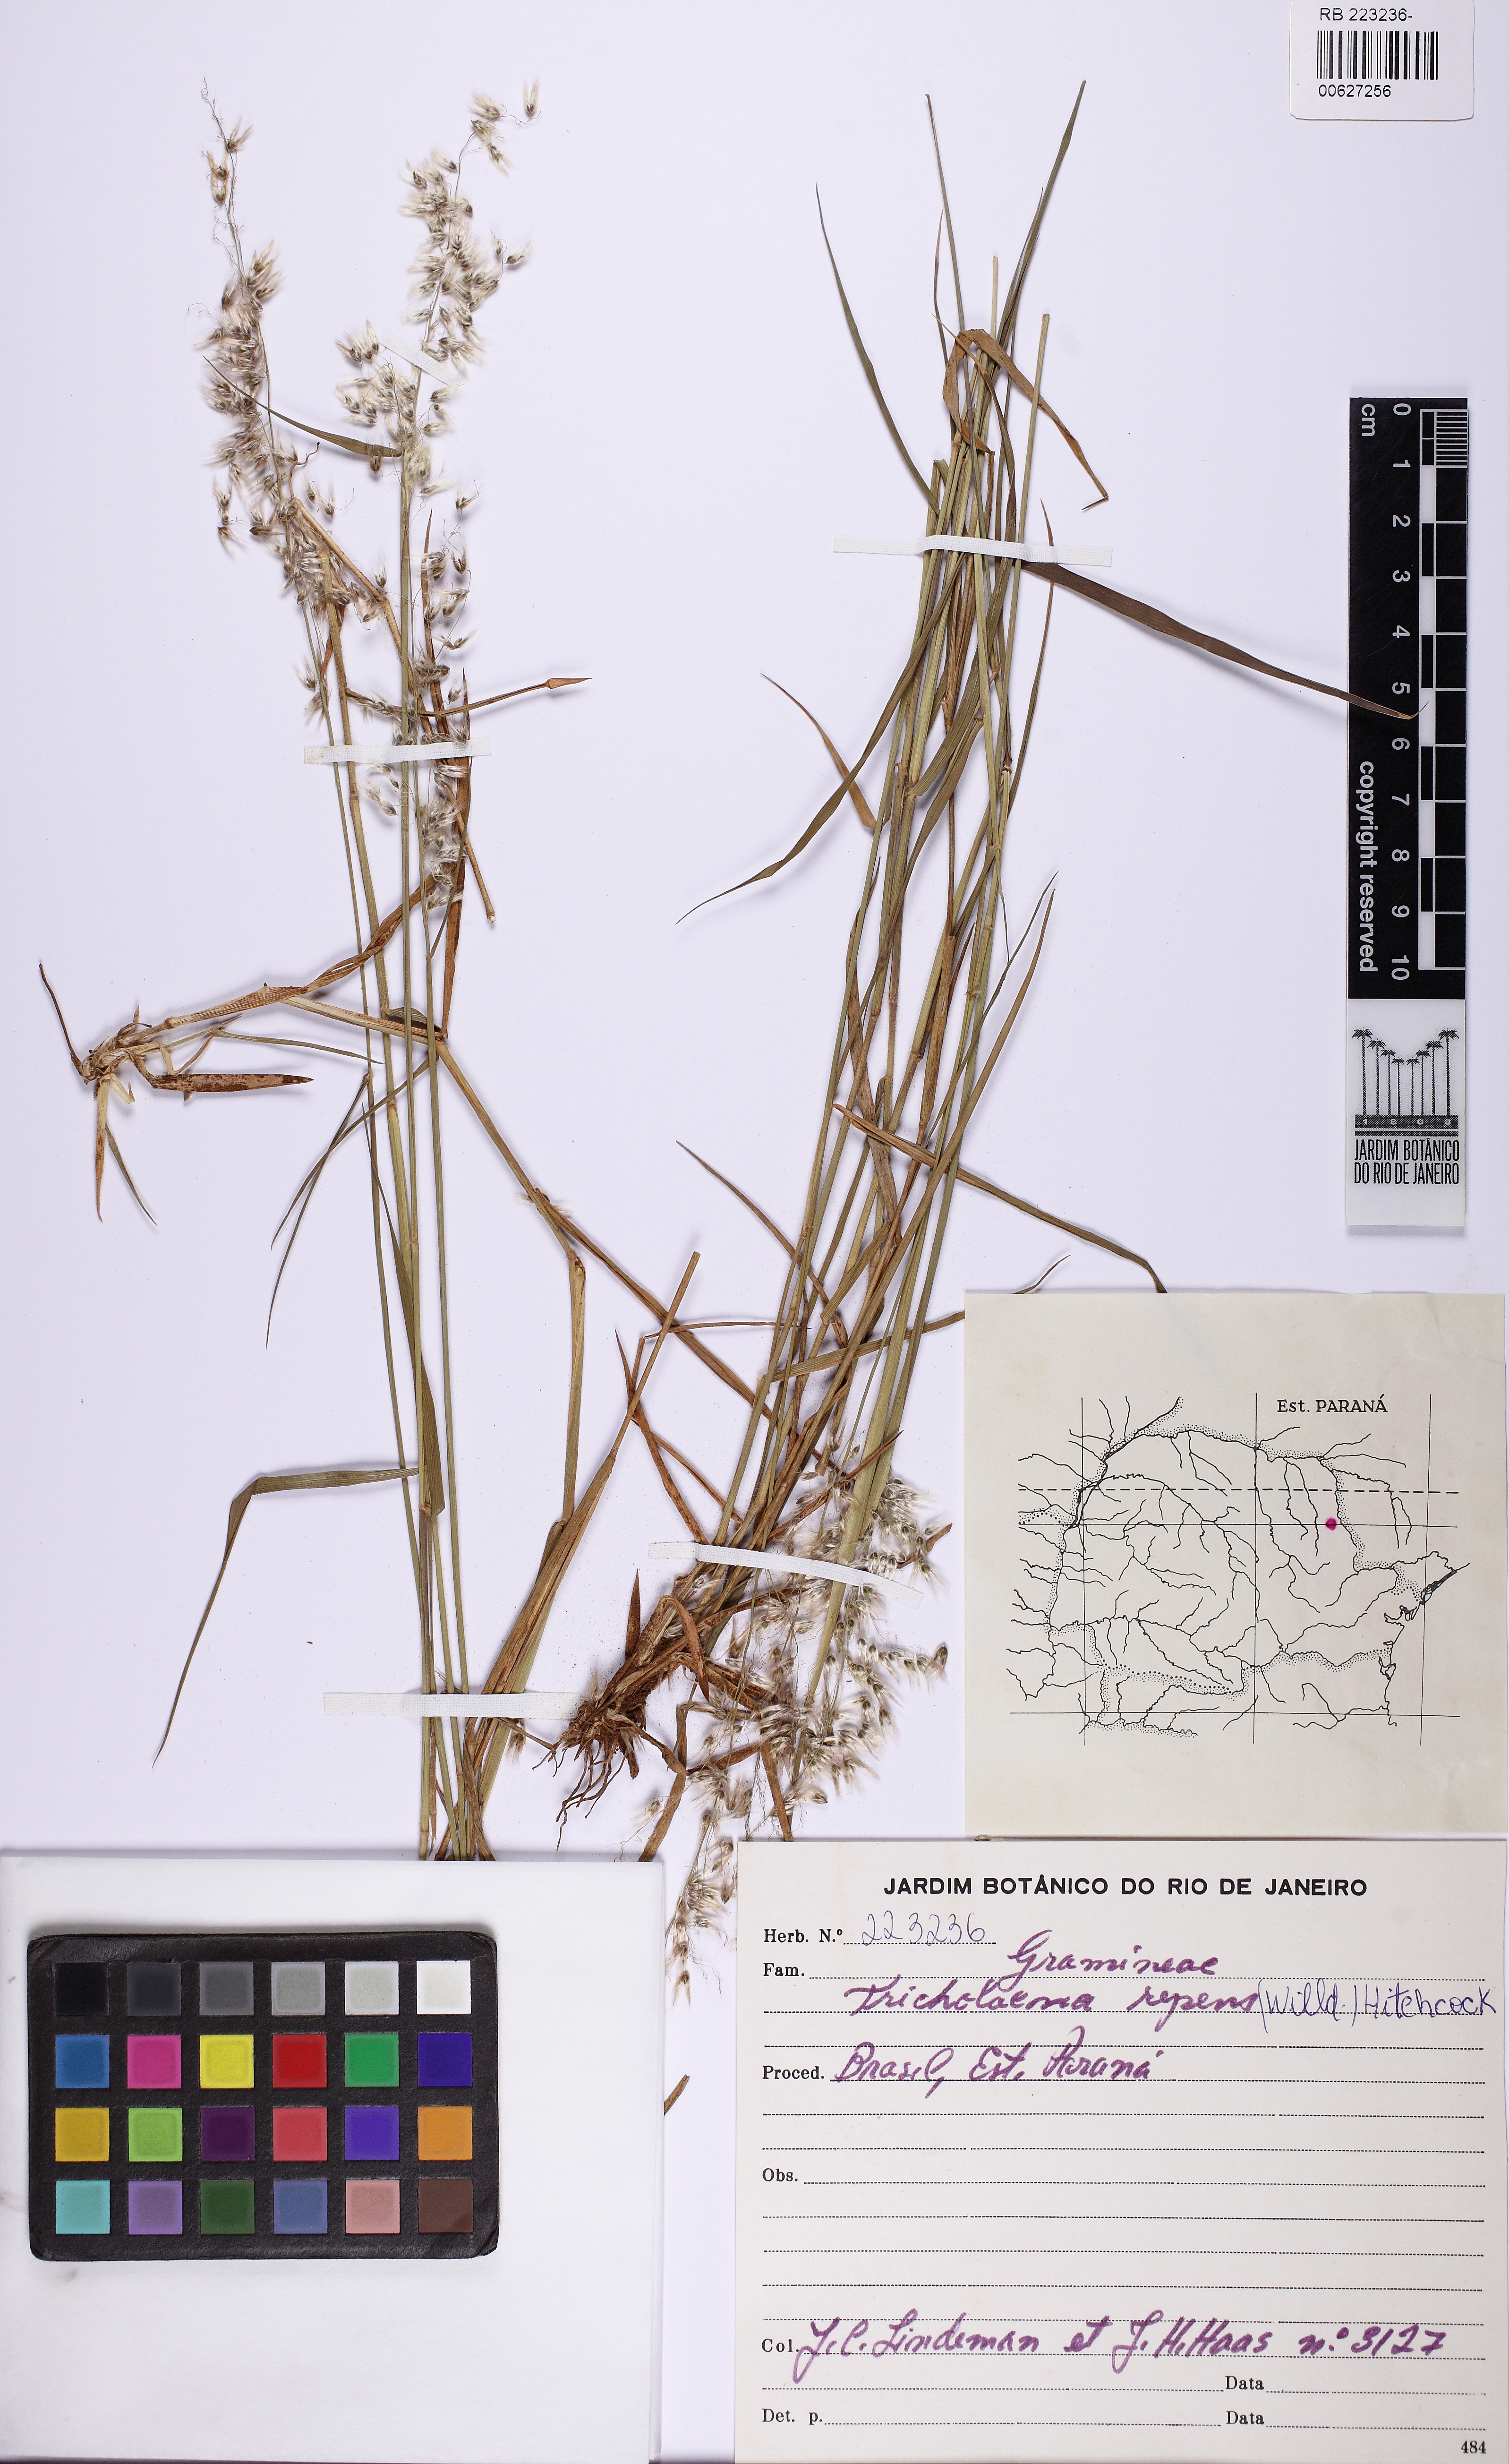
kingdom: Plantae
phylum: Tracheophyta
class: Liliopsida
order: Poales
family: Poaceae
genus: Melinis
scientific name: Melinis repens
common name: Rose natal grass
